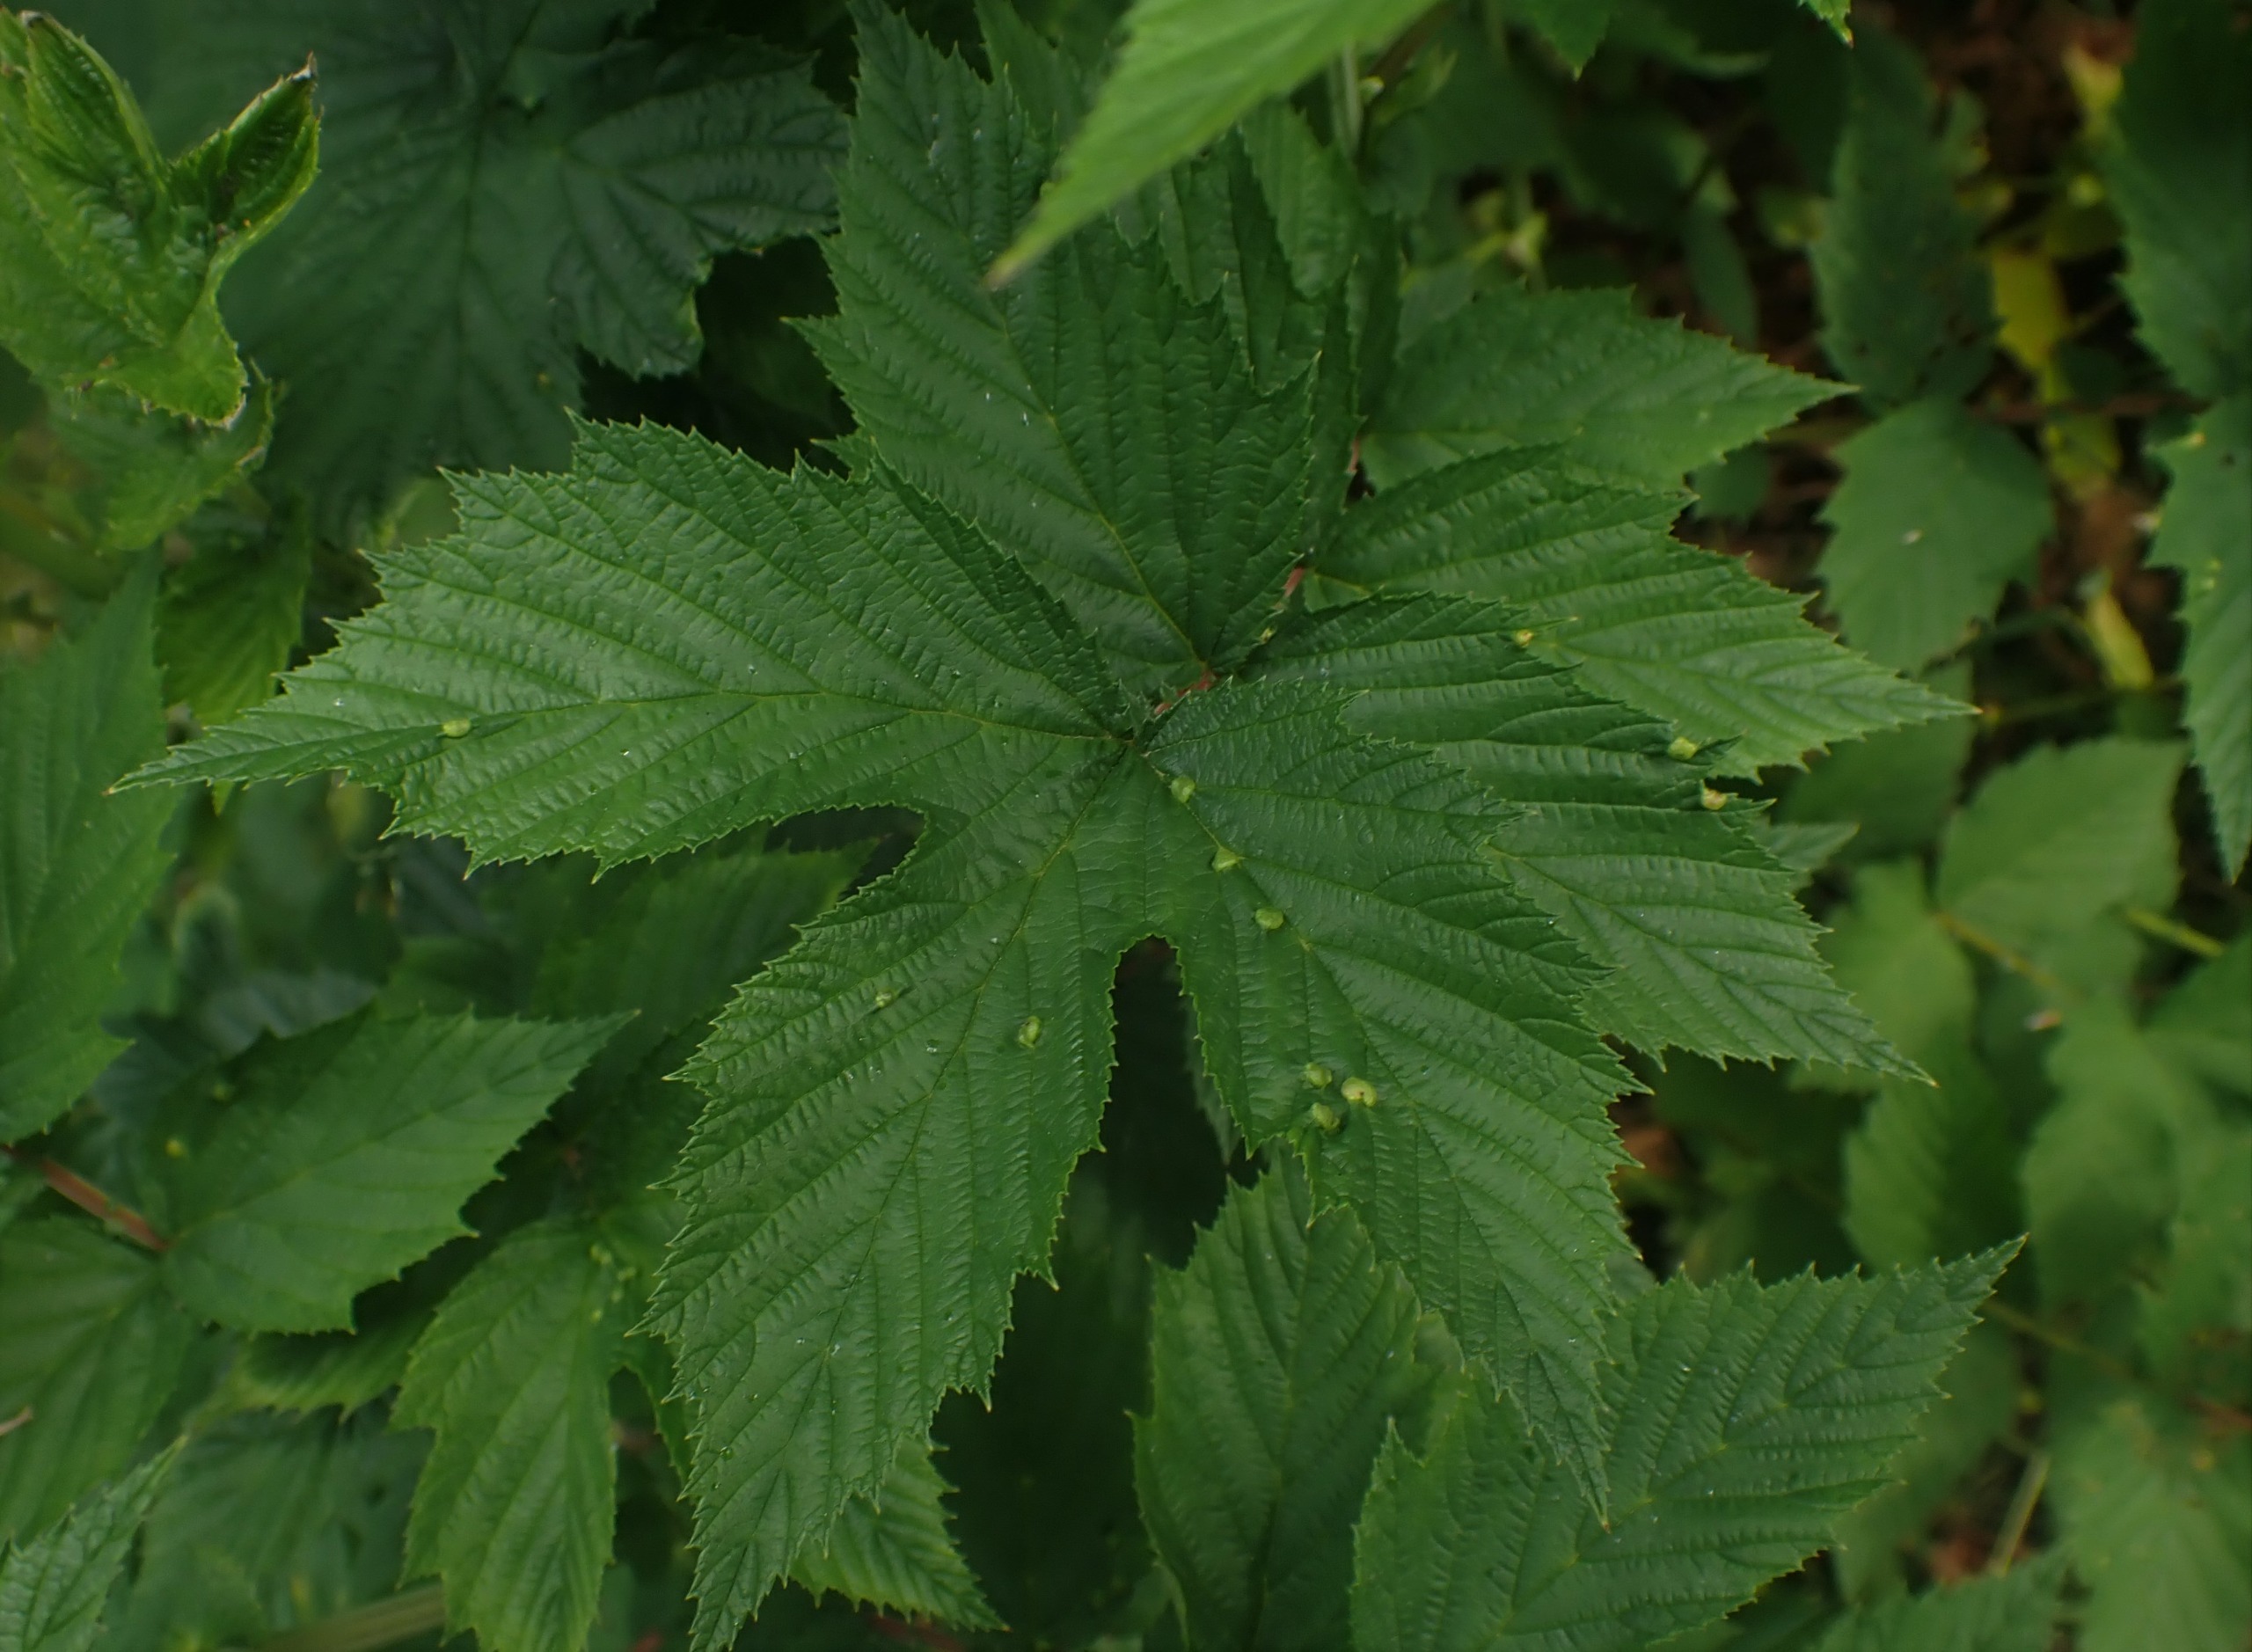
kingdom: Animalia
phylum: Arthropoda
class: Insecta
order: Diptera
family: Cecidomyiidae
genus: Dasineura
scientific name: Dasineura ulmaria
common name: Mjødurtgalmyg
